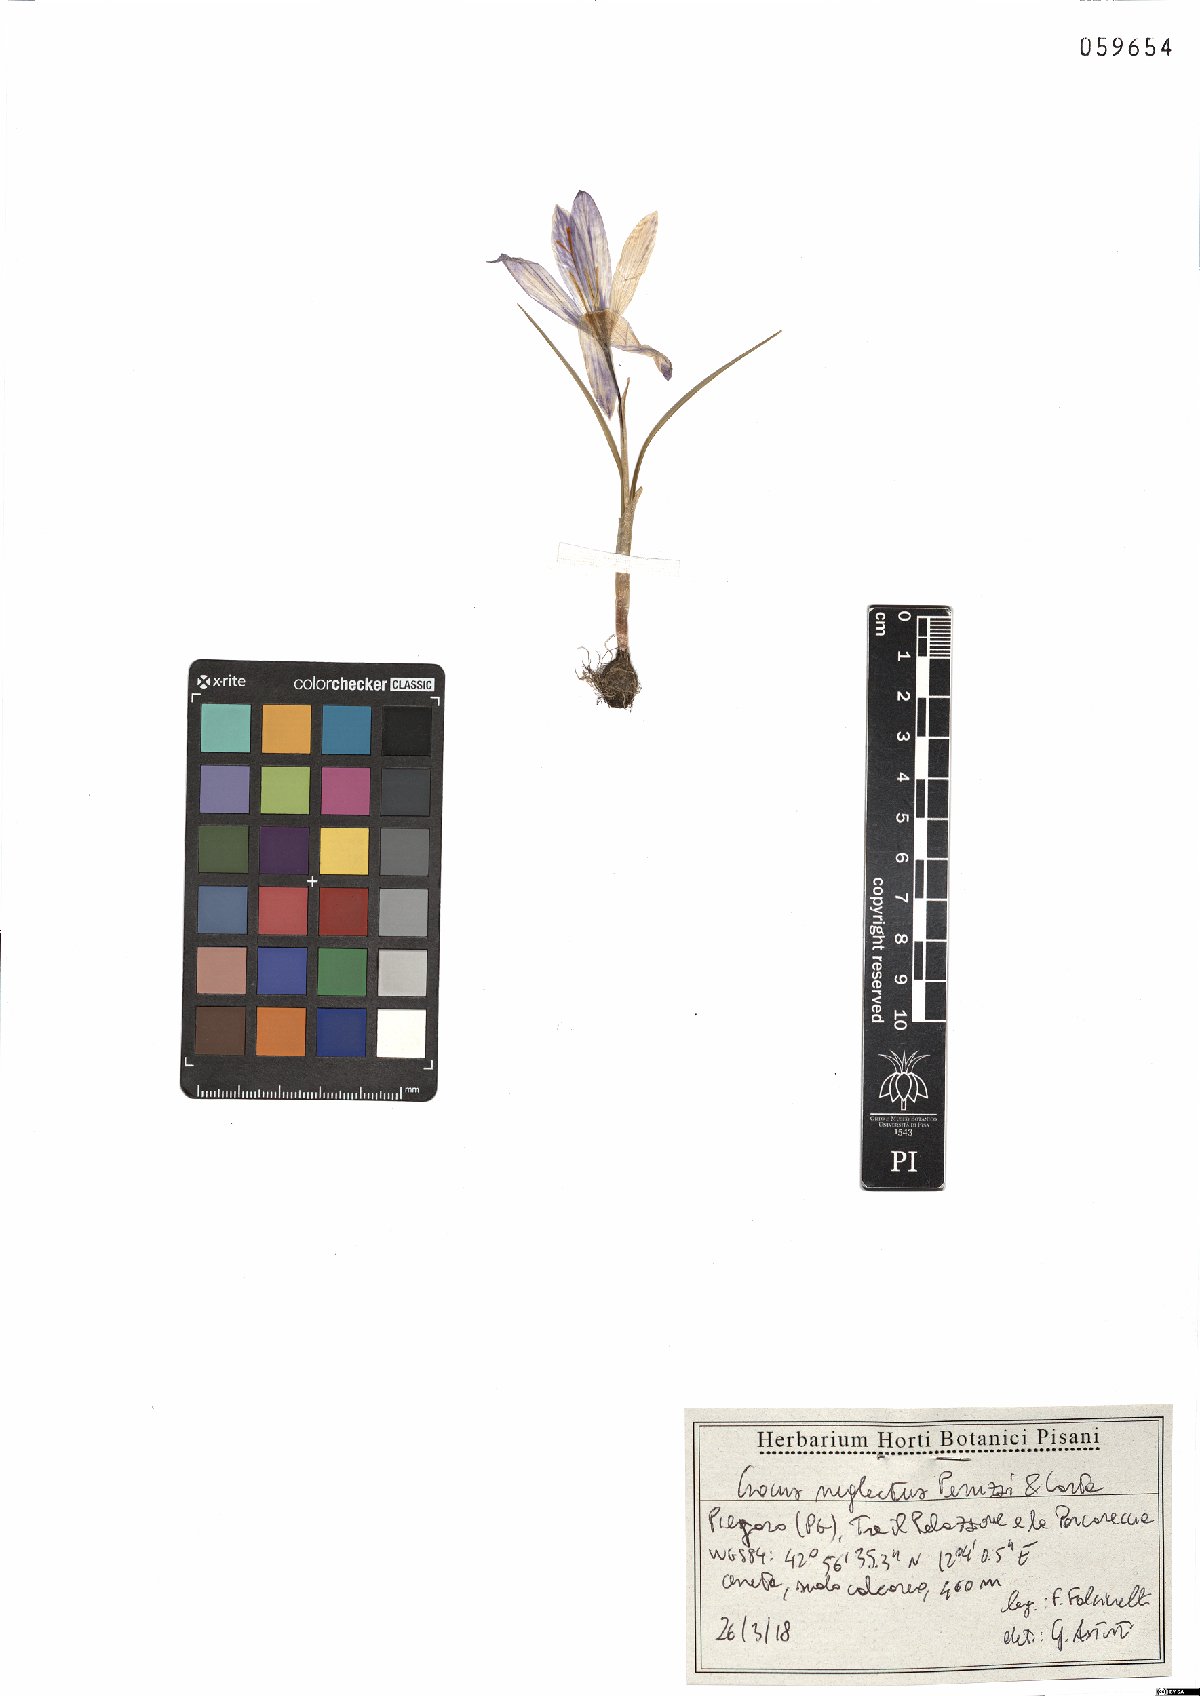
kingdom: Plantae
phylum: Tracheophyta
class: Liliopsida
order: Asparagales
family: Iridaceae
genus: Crocus
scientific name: Crocus neglectus
